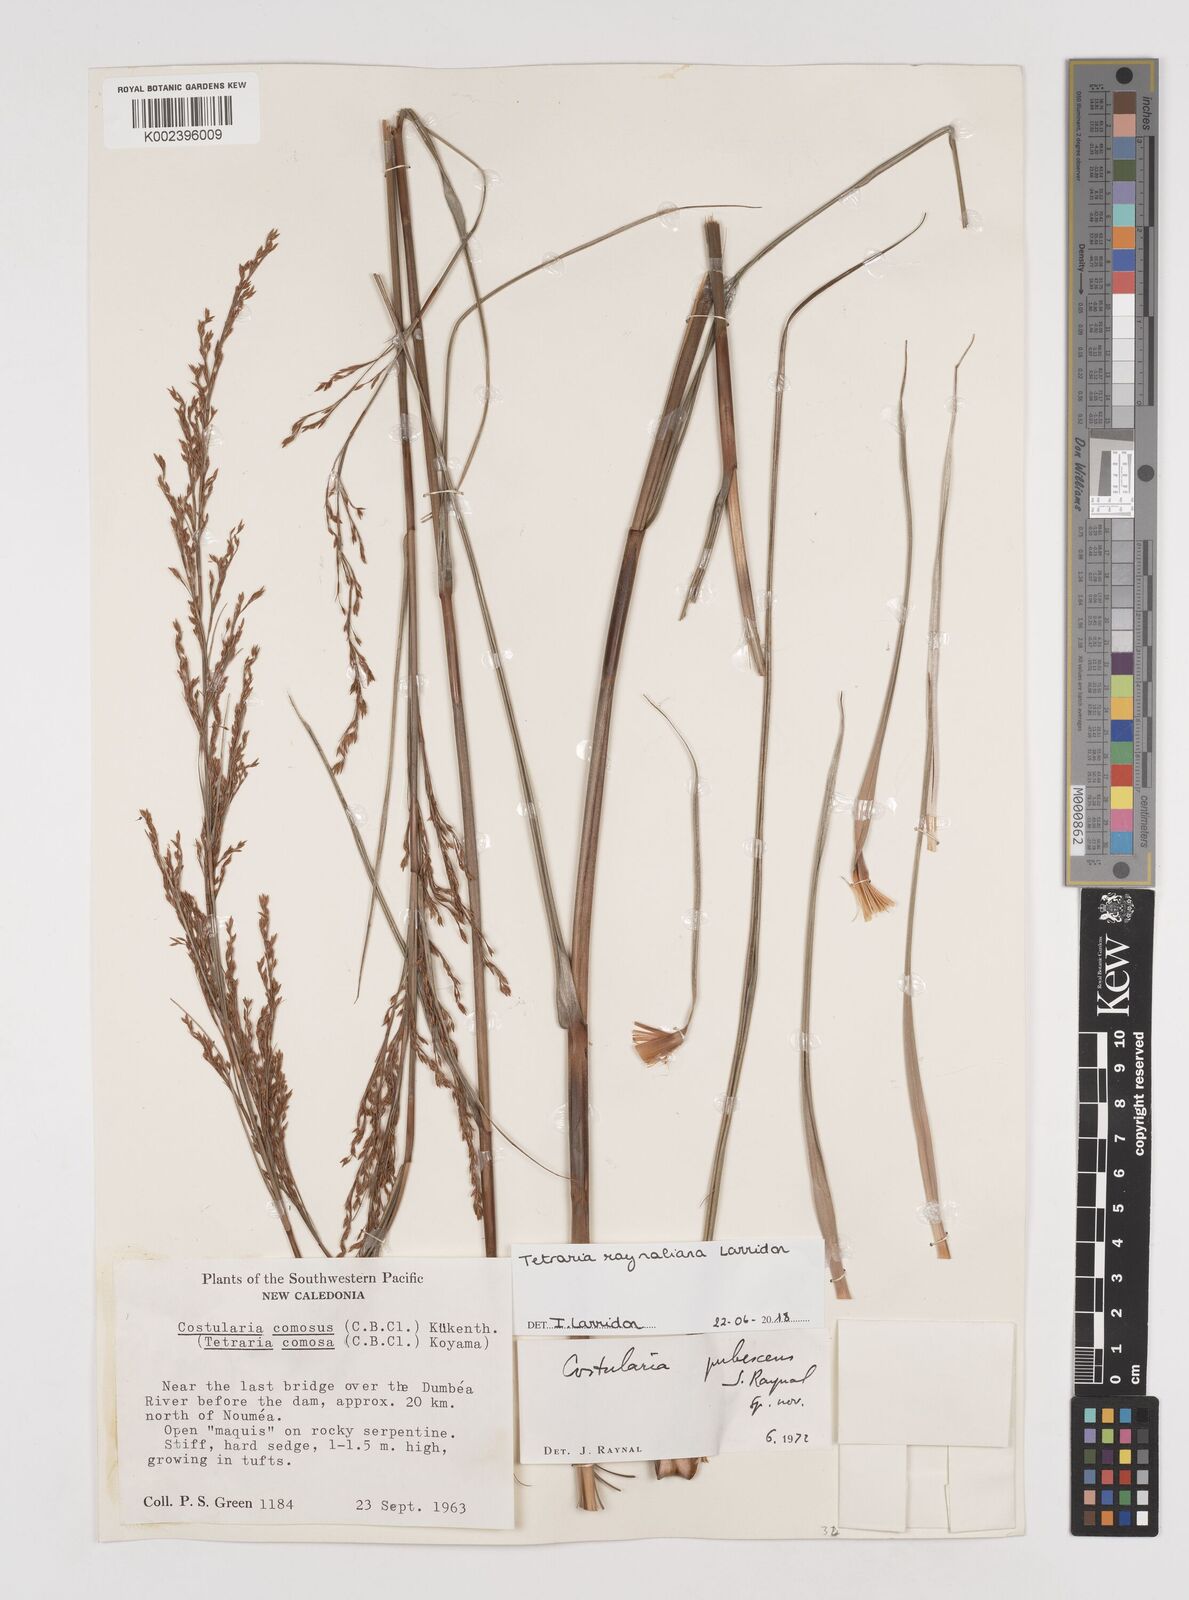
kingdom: Plantae
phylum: Tracheophyta
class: Liliopsida
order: Poales
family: Cyperaceae
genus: Tetraria
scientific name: Tetraria raynaliana
